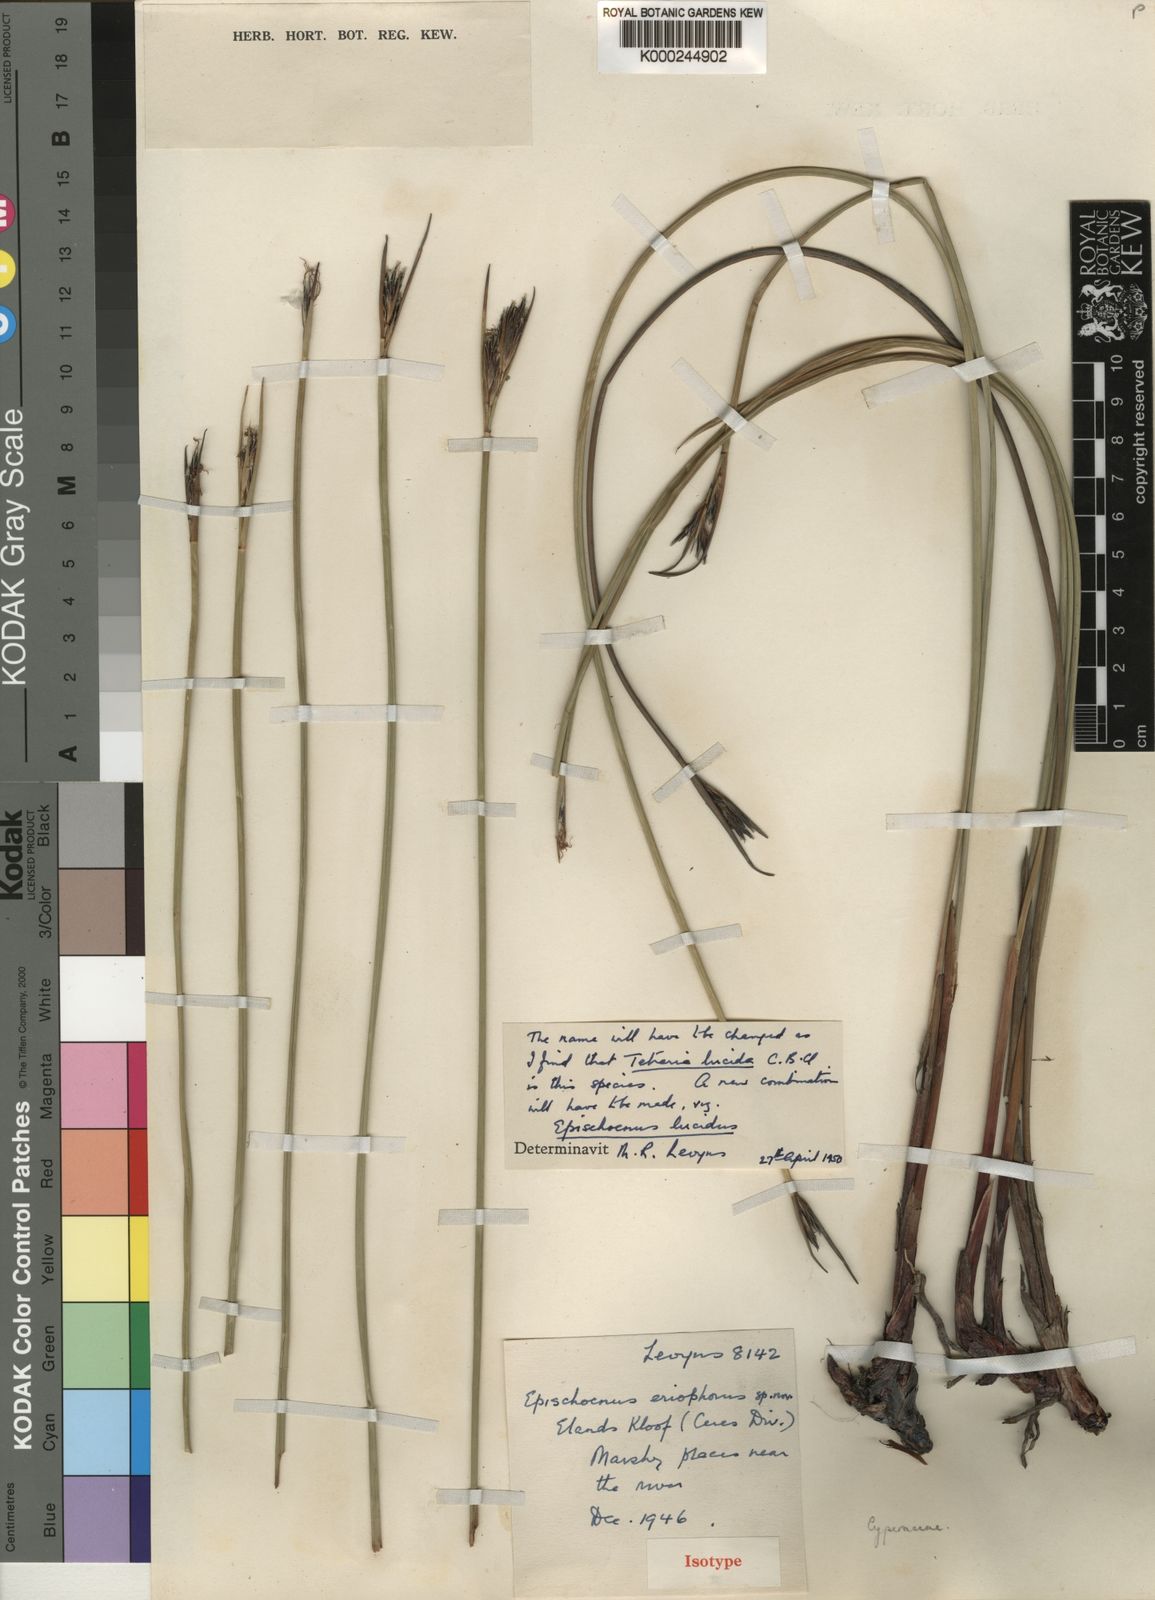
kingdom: Plantae
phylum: Tracheophyta
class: Liliopsida
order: Poales
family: Cyperaceae
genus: Schoenus
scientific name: Schoenus lucidus
